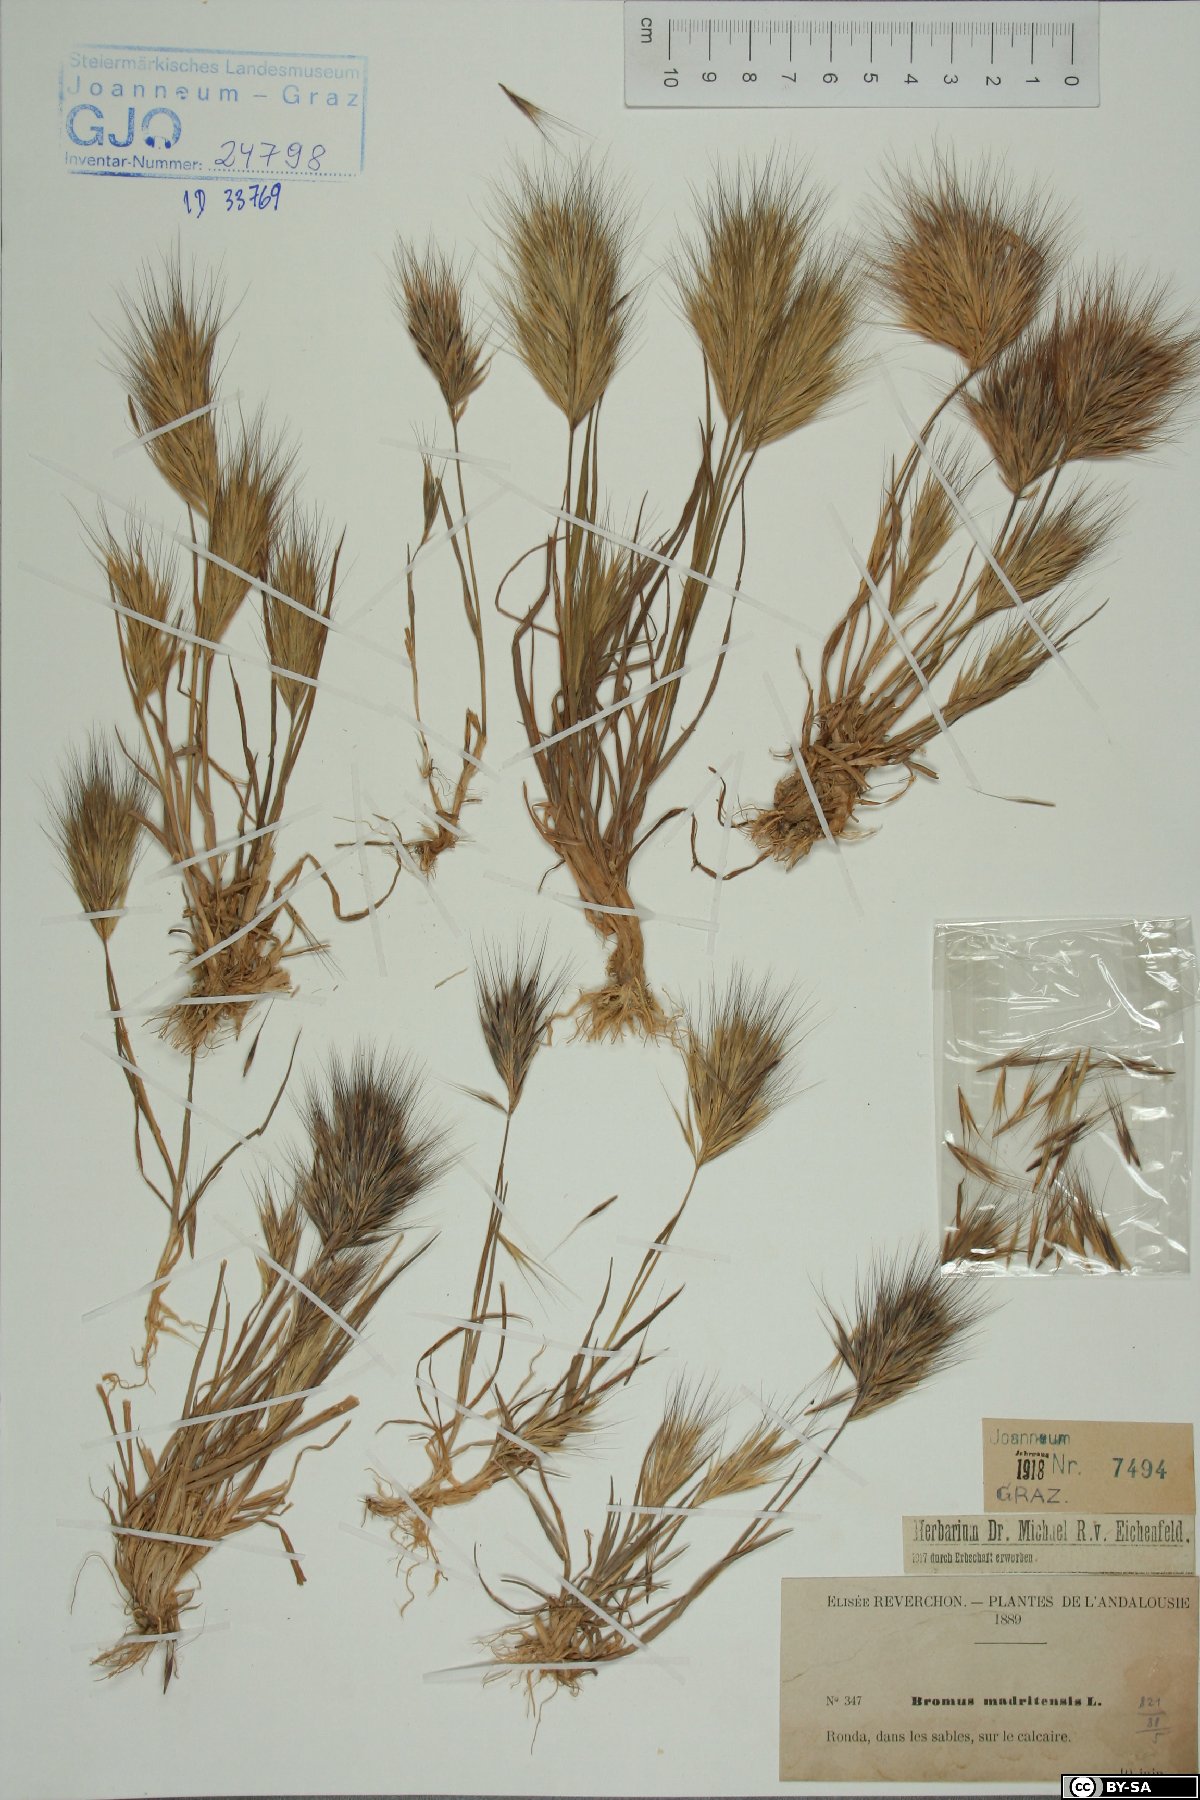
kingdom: Plantae
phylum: Tracheophyta
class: Liliopsida
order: Poales
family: Poaceae
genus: Bromus
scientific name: Bromus madritensis
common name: Compact brome
